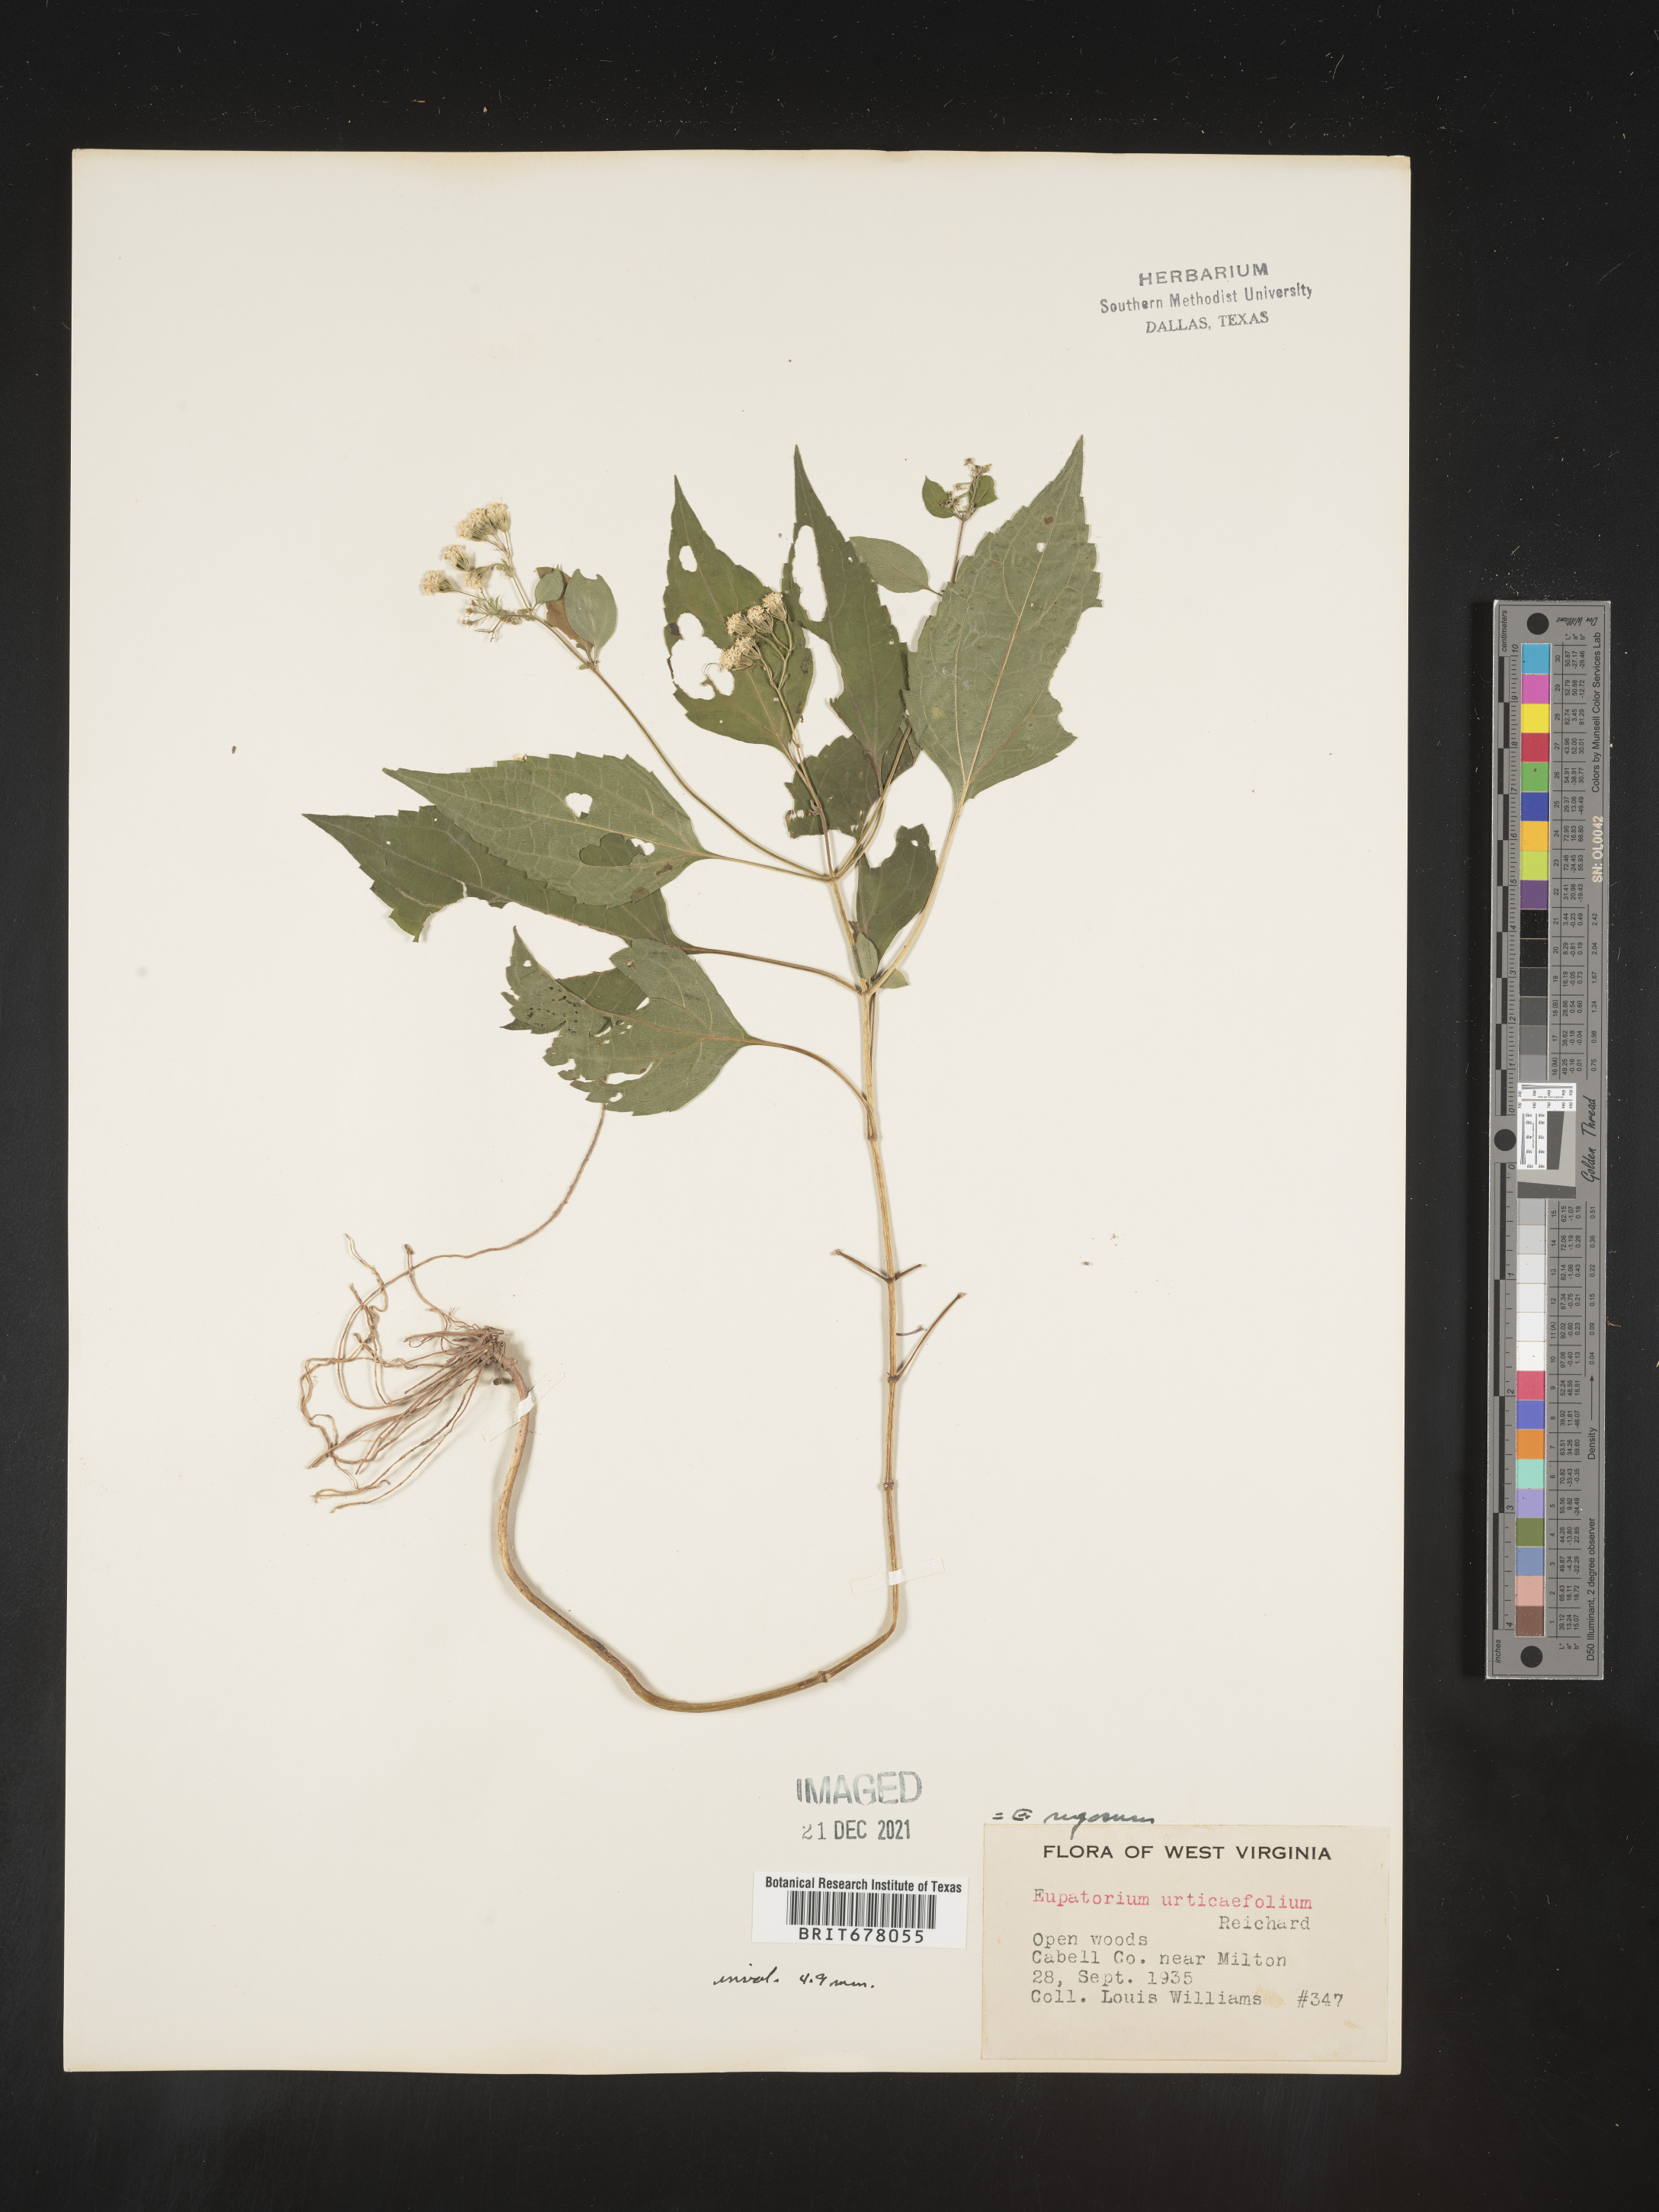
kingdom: Plantae
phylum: Tracheophyta
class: Magnoliopsida
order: Asterales
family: Asteraceae
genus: Eupatorium
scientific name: Eupatorium
